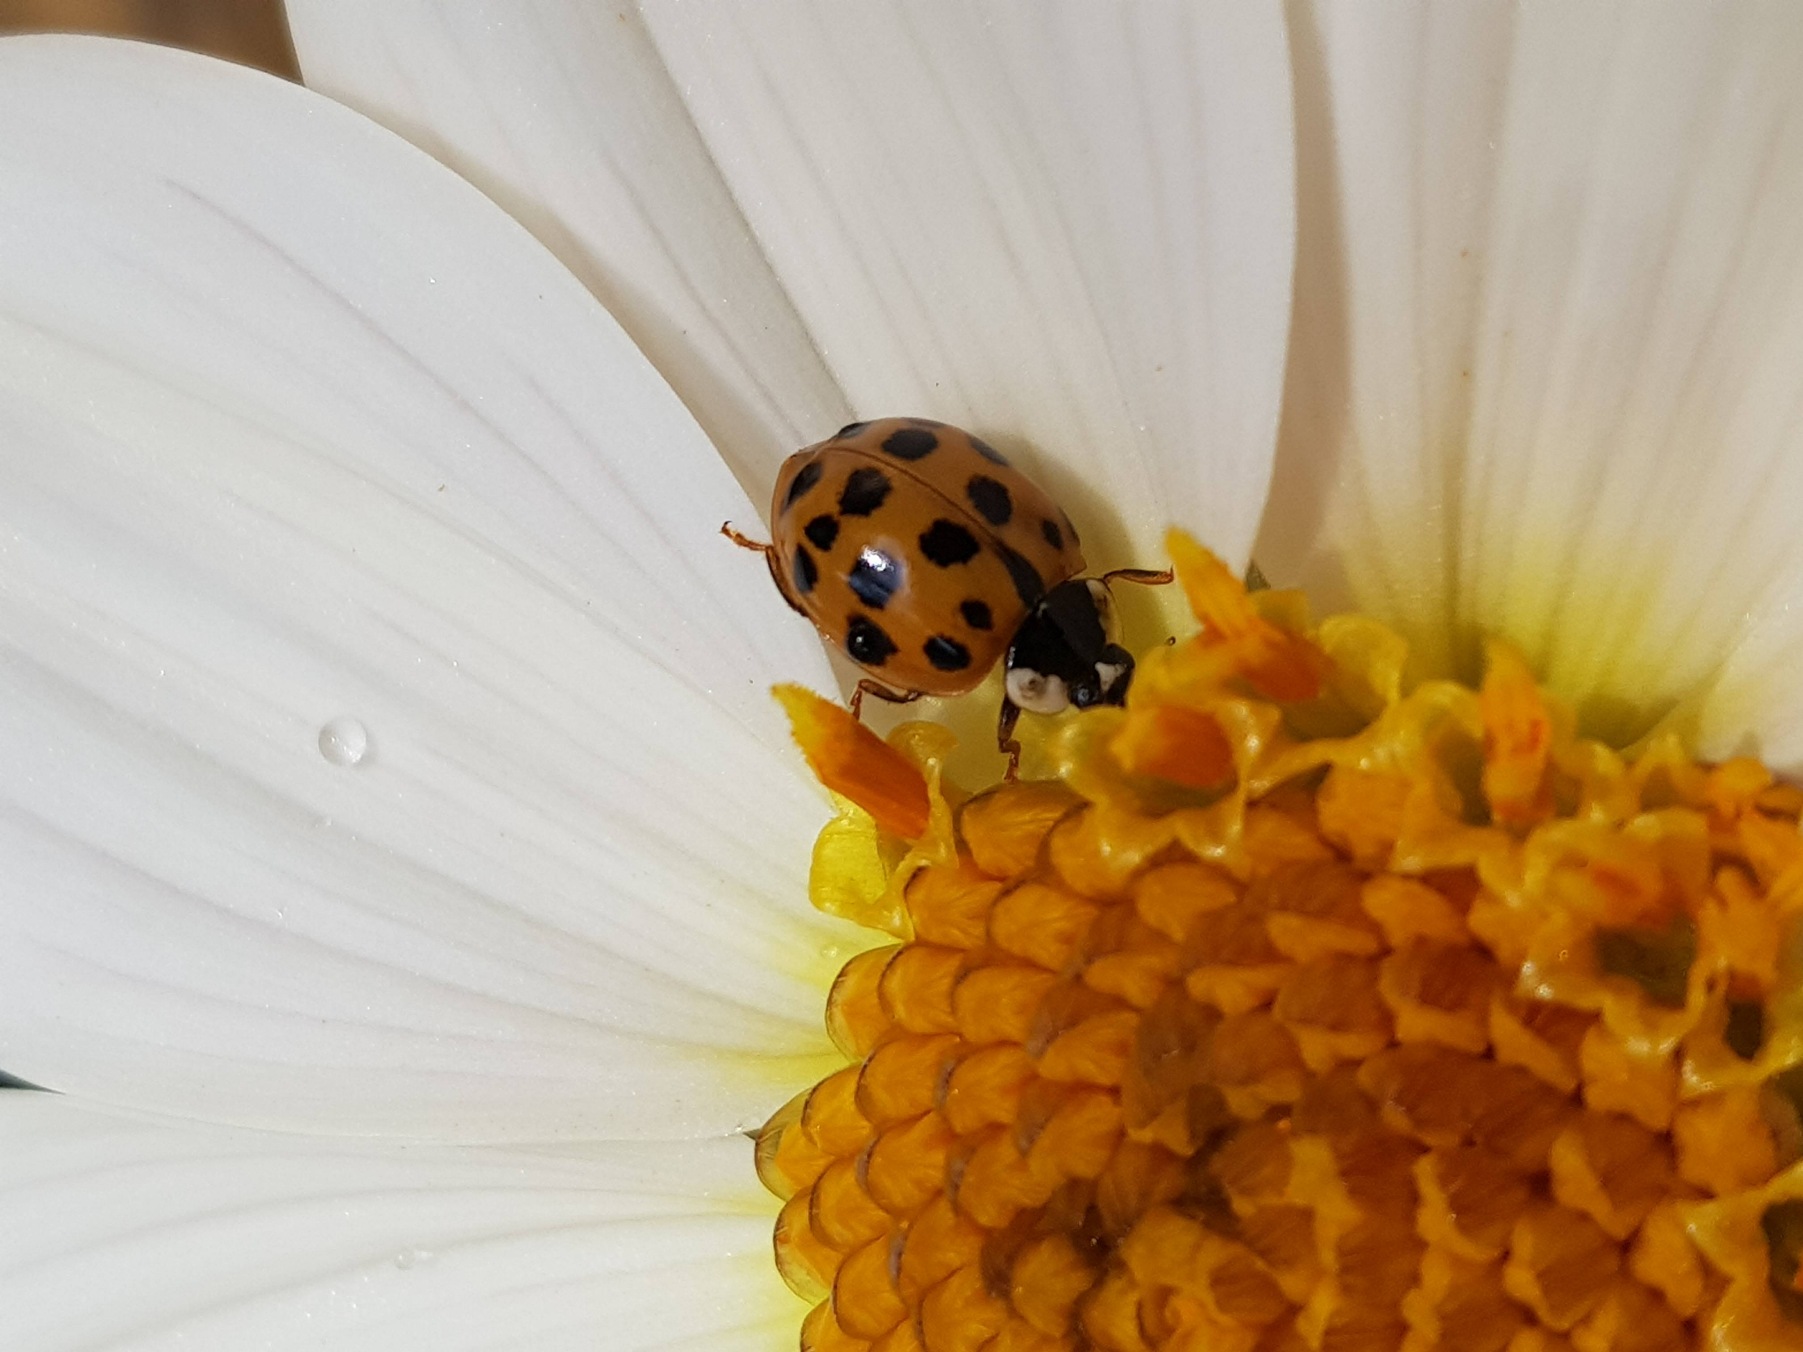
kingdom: Animalia
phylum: Arthropoda
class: Insecta
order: Coleoptera
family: Coccinellidae
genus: Harmonia
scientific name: Harmonia axyridis
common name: Harlekinmariehøne
